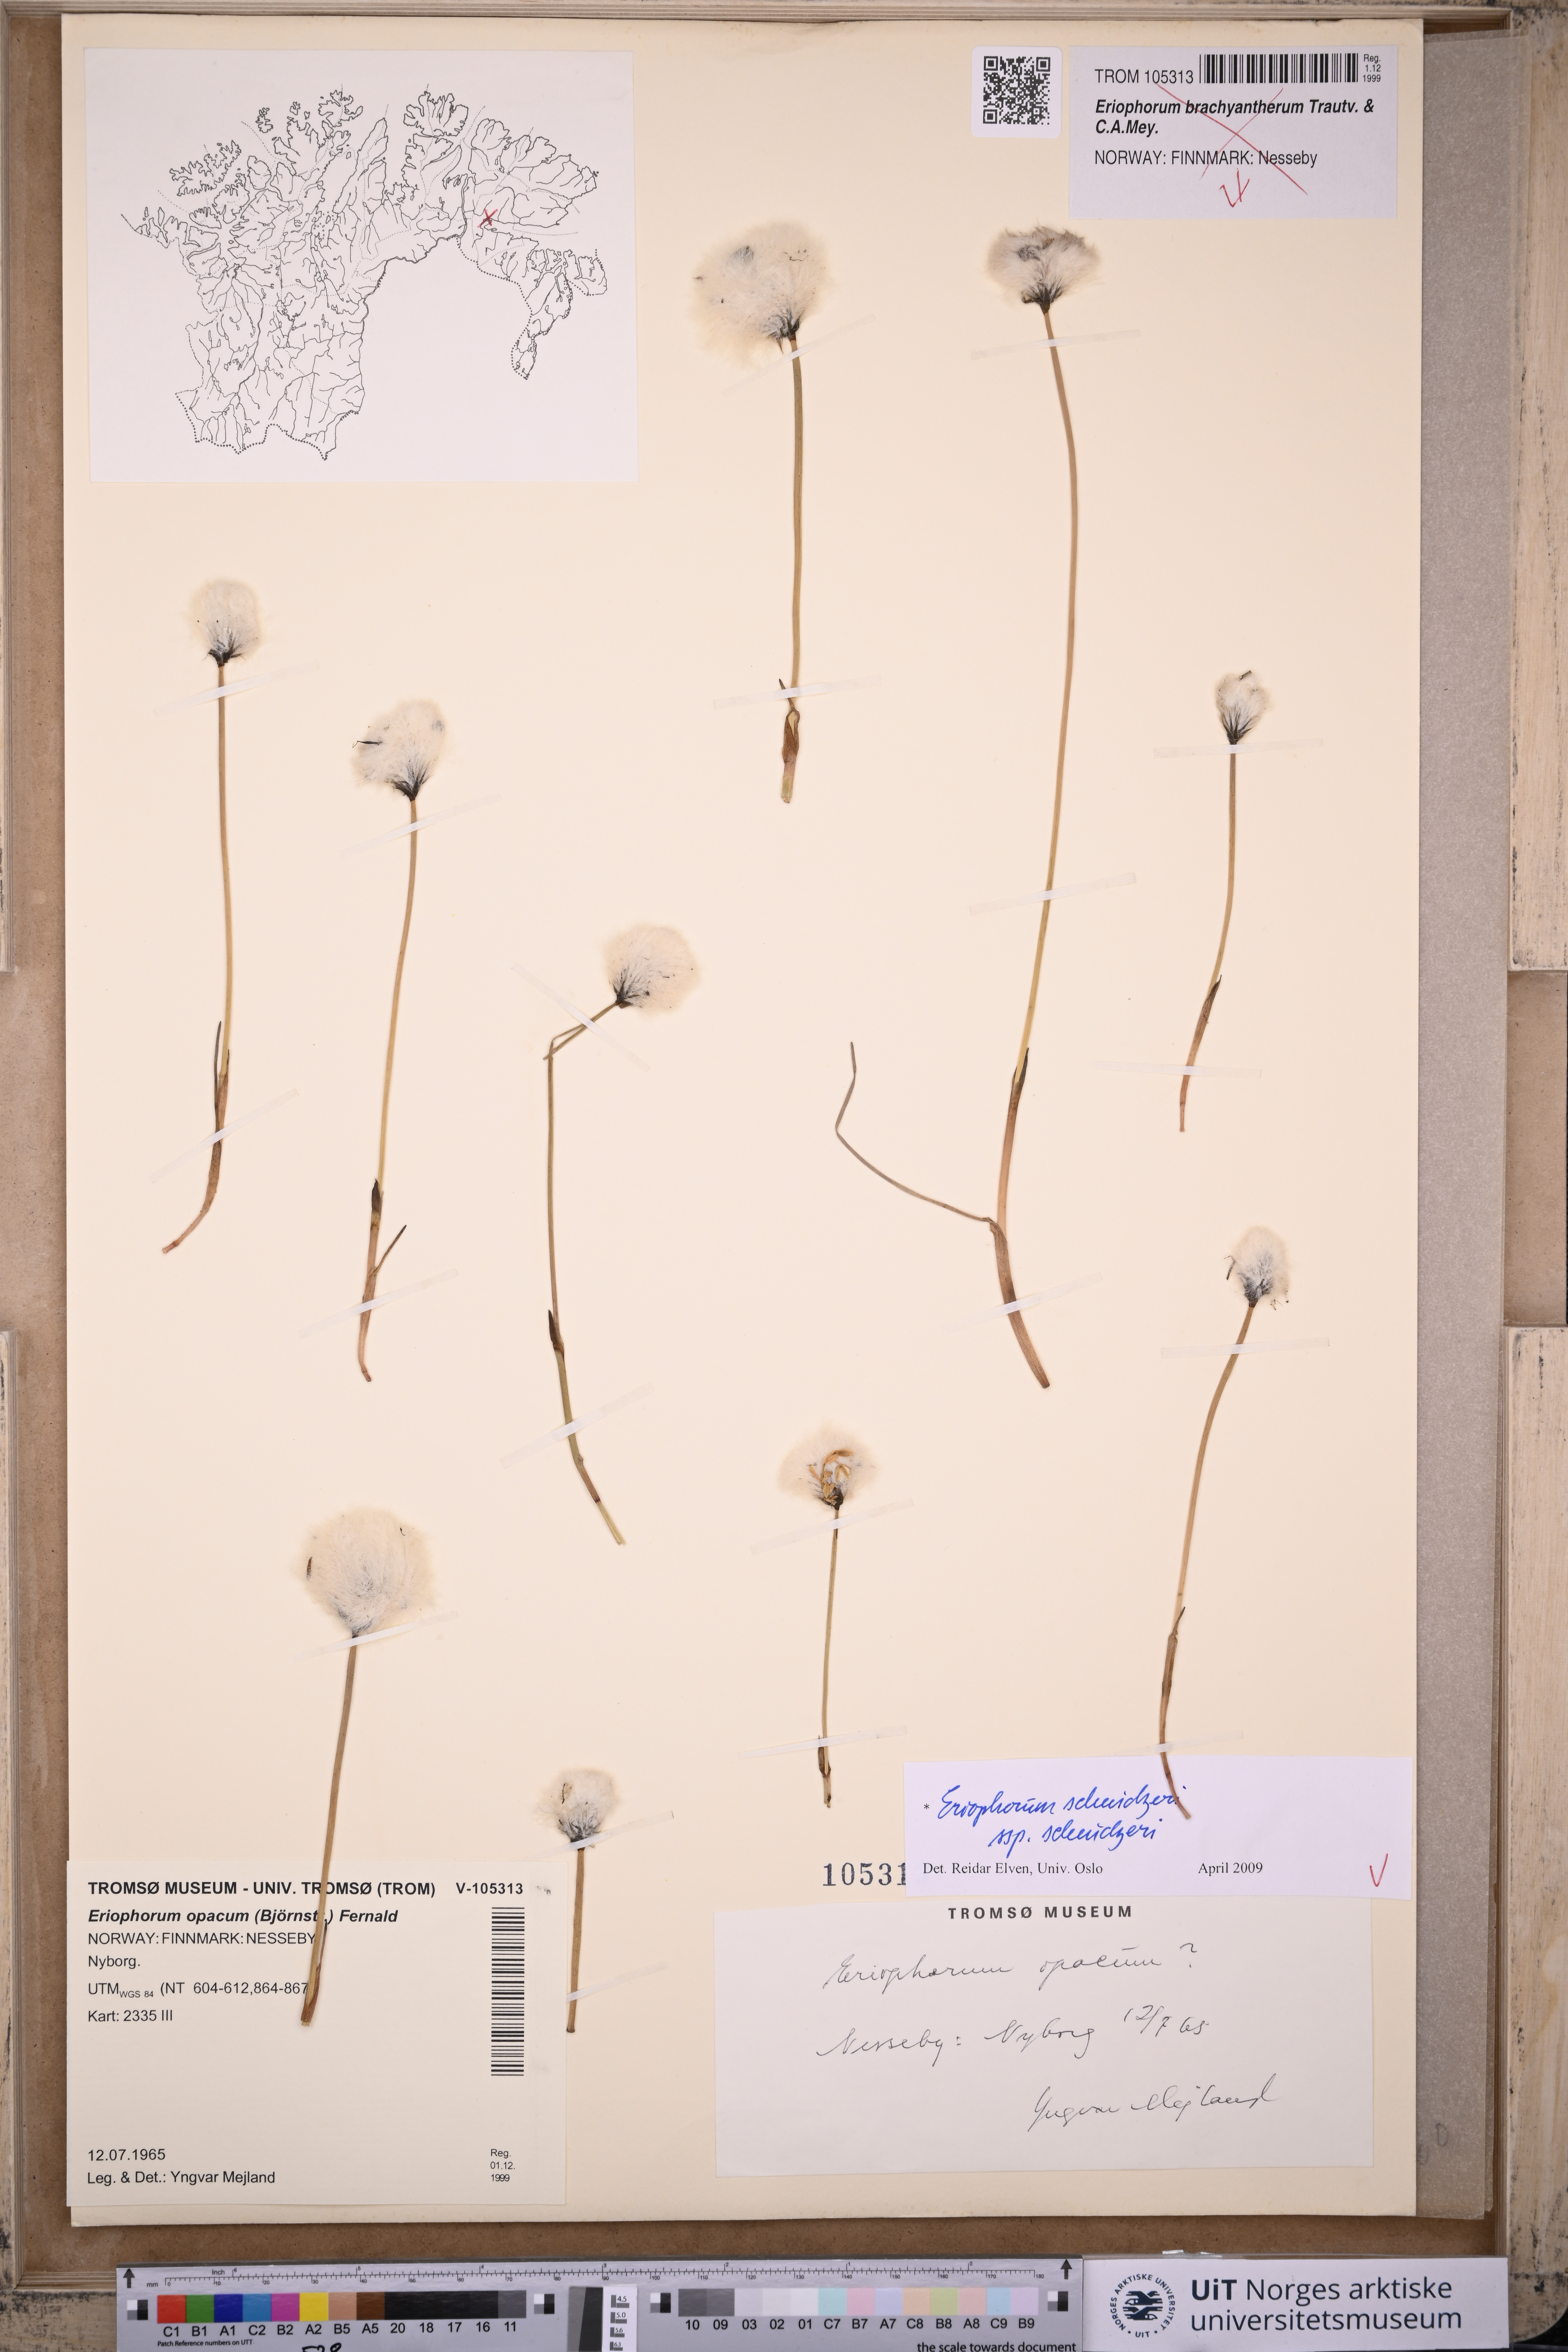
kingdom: Plantae
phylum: Tracheophyta
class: Liliopsida
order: Poales
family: Cyperaceae
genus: Eriophorum
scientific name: Eriophorum scheuchzeri
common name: Scheuchzer's cottongrass
